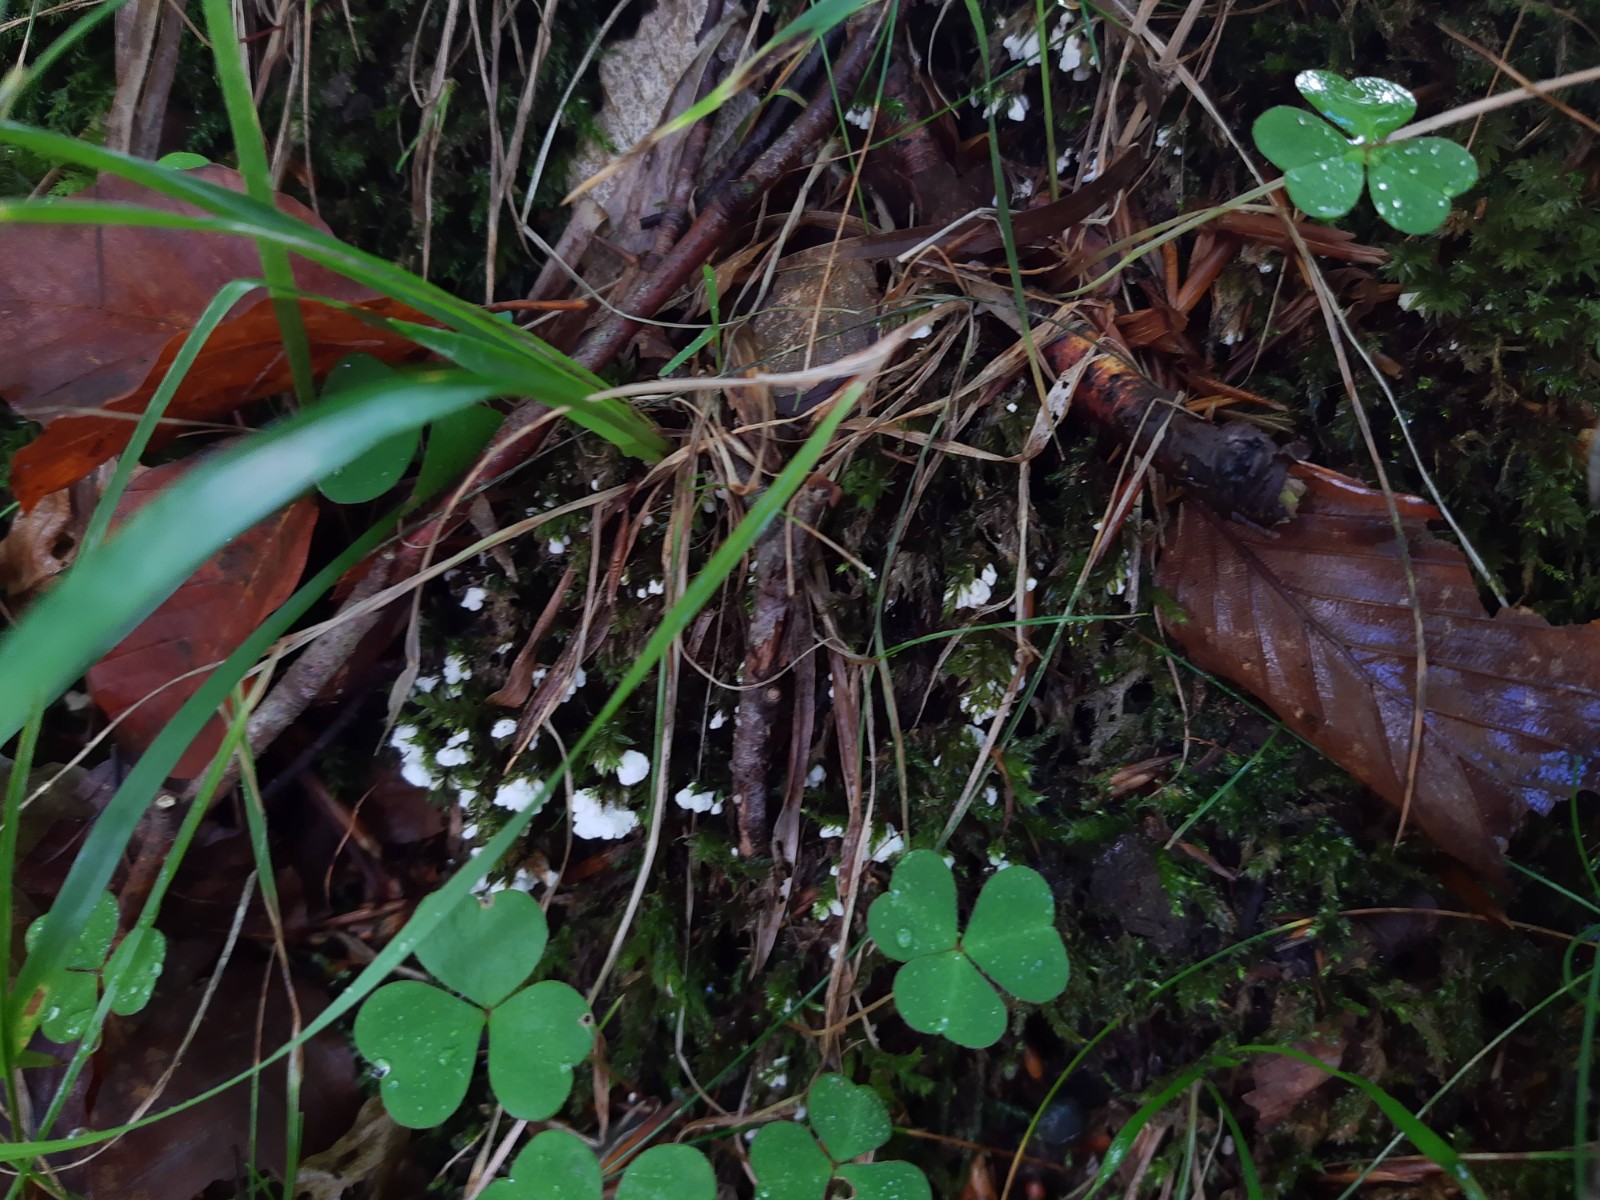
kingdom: Fungi
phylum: Basidiomycota
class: Agaricomycetes
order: Agaricales
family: Tricholomataceae
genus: Rimbachia
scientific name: Rimbachia arachnoidea
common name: Almindelig mosskål
